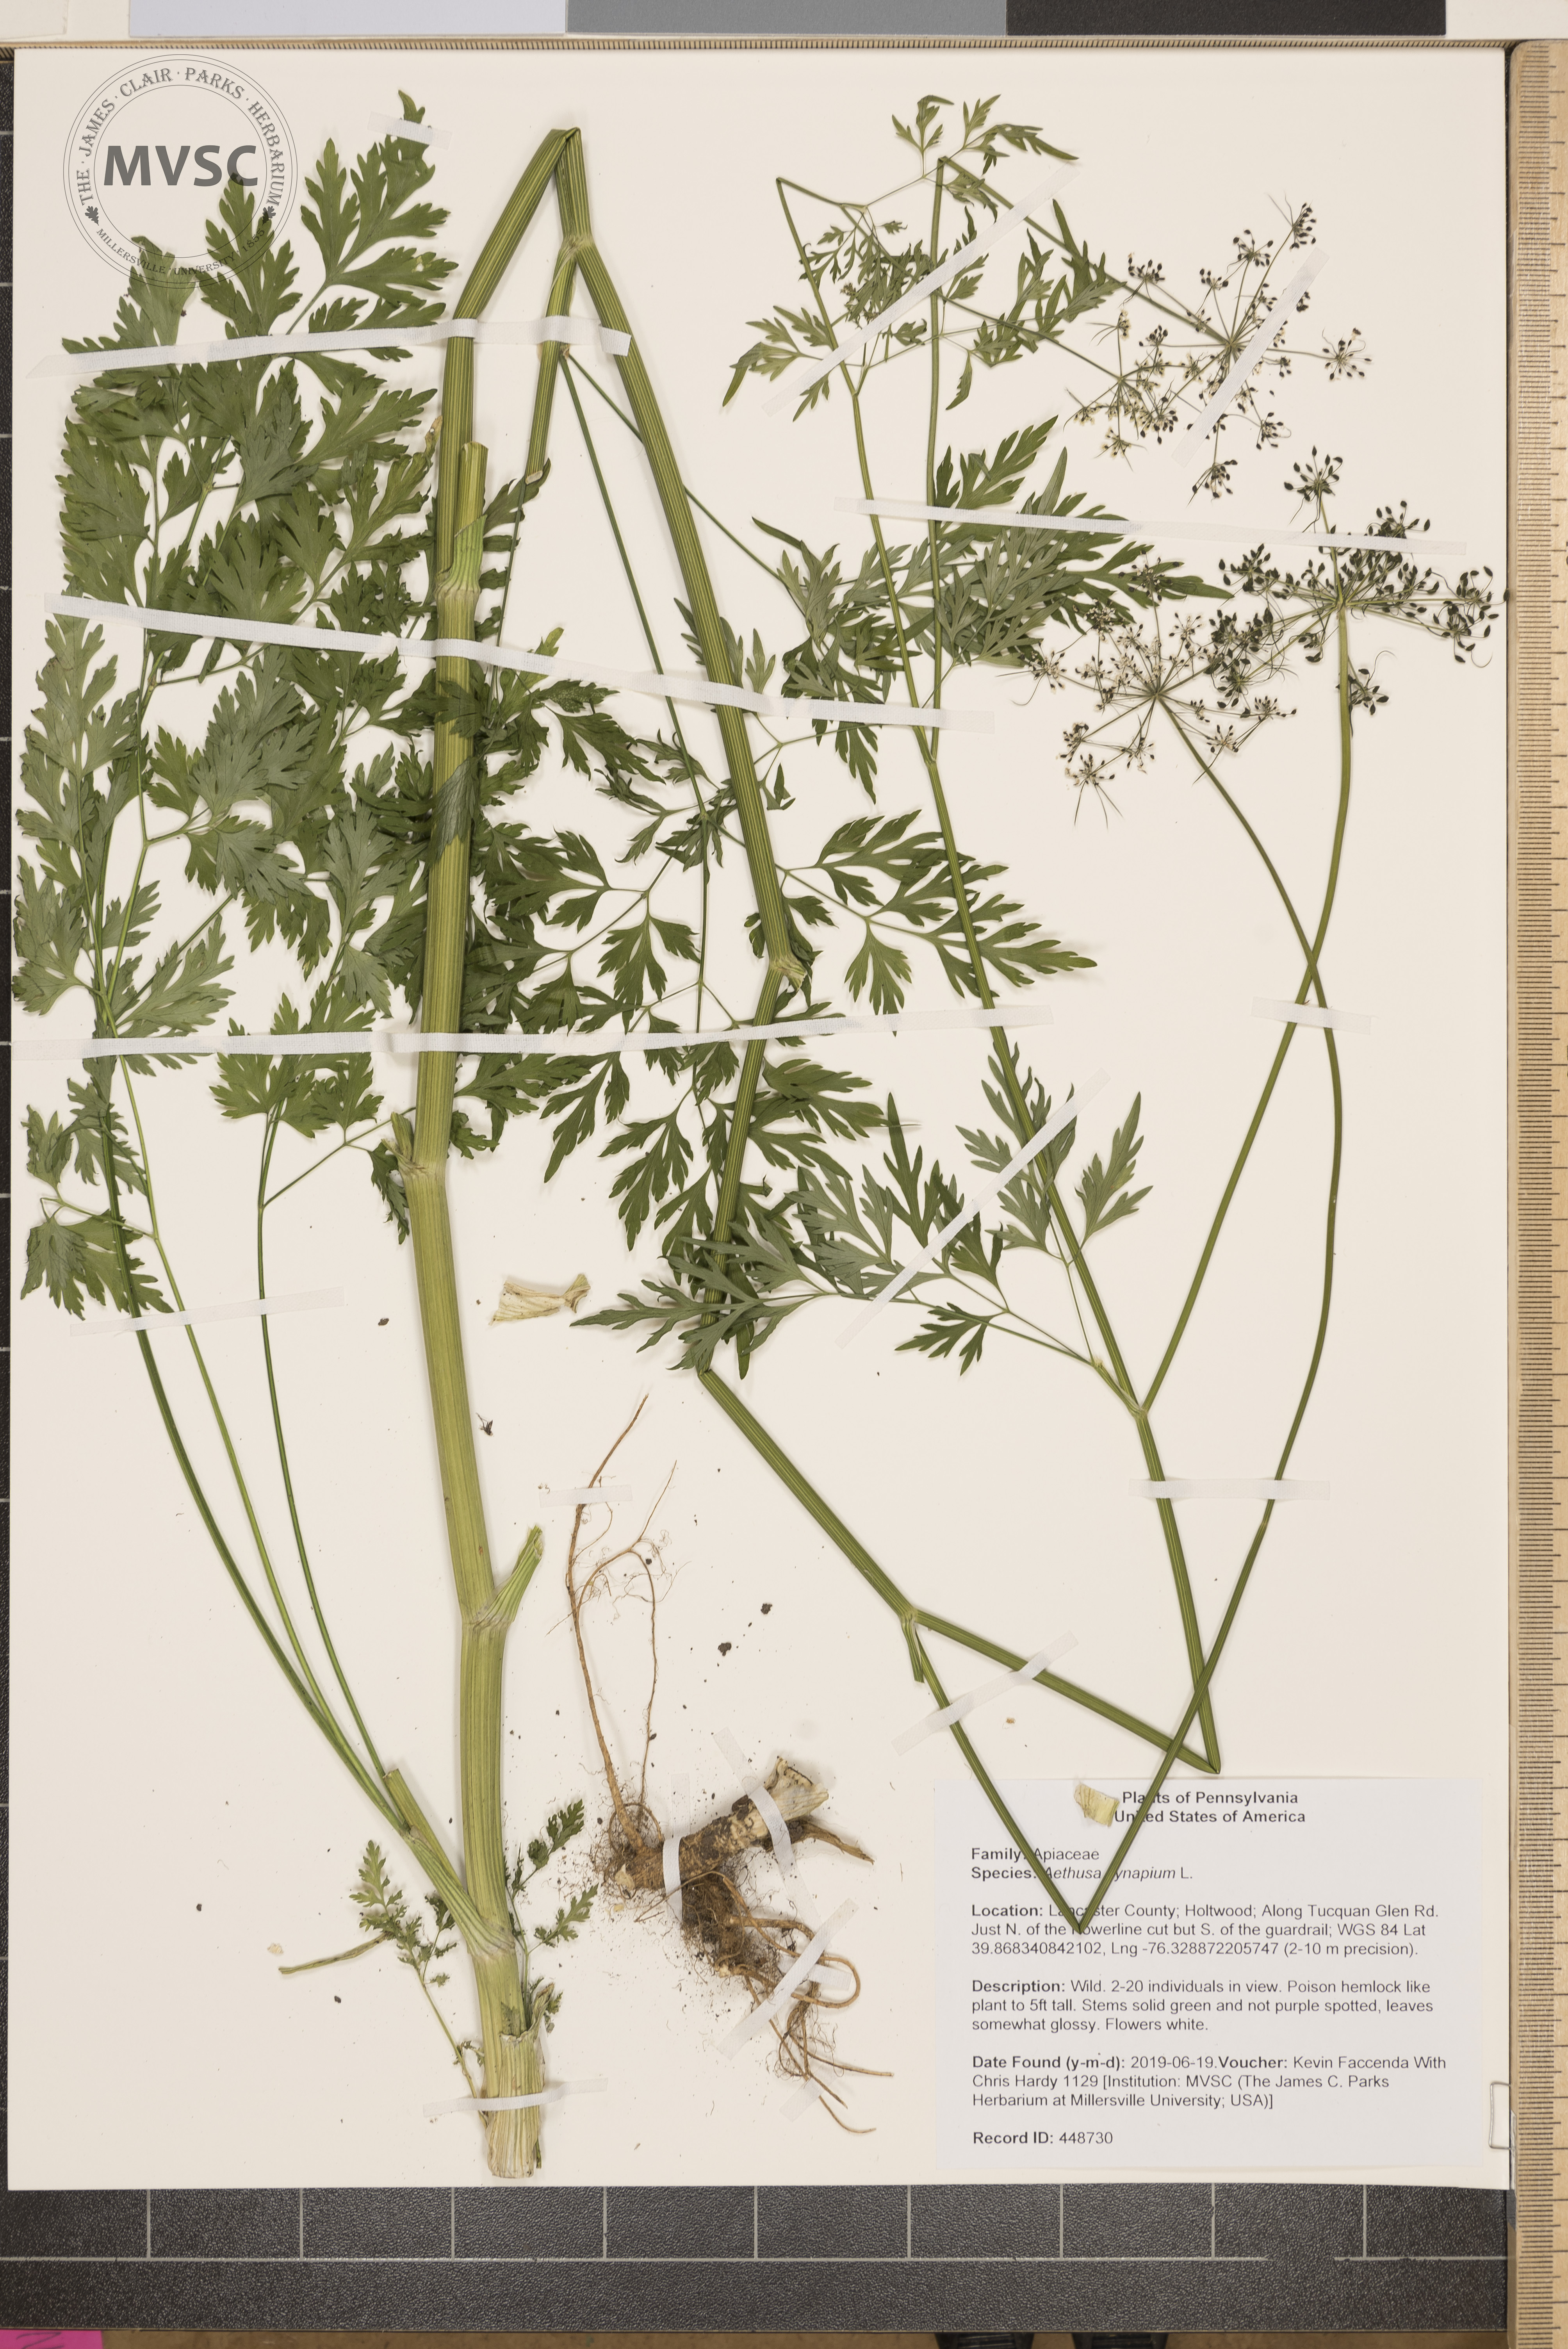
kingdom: Plantae
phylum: Tracheophyta
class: Magnoliopsida
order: Apiales
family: Apiaceae
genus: Aethusa
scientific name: Aethusa cynapium
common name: Fool's parsley
